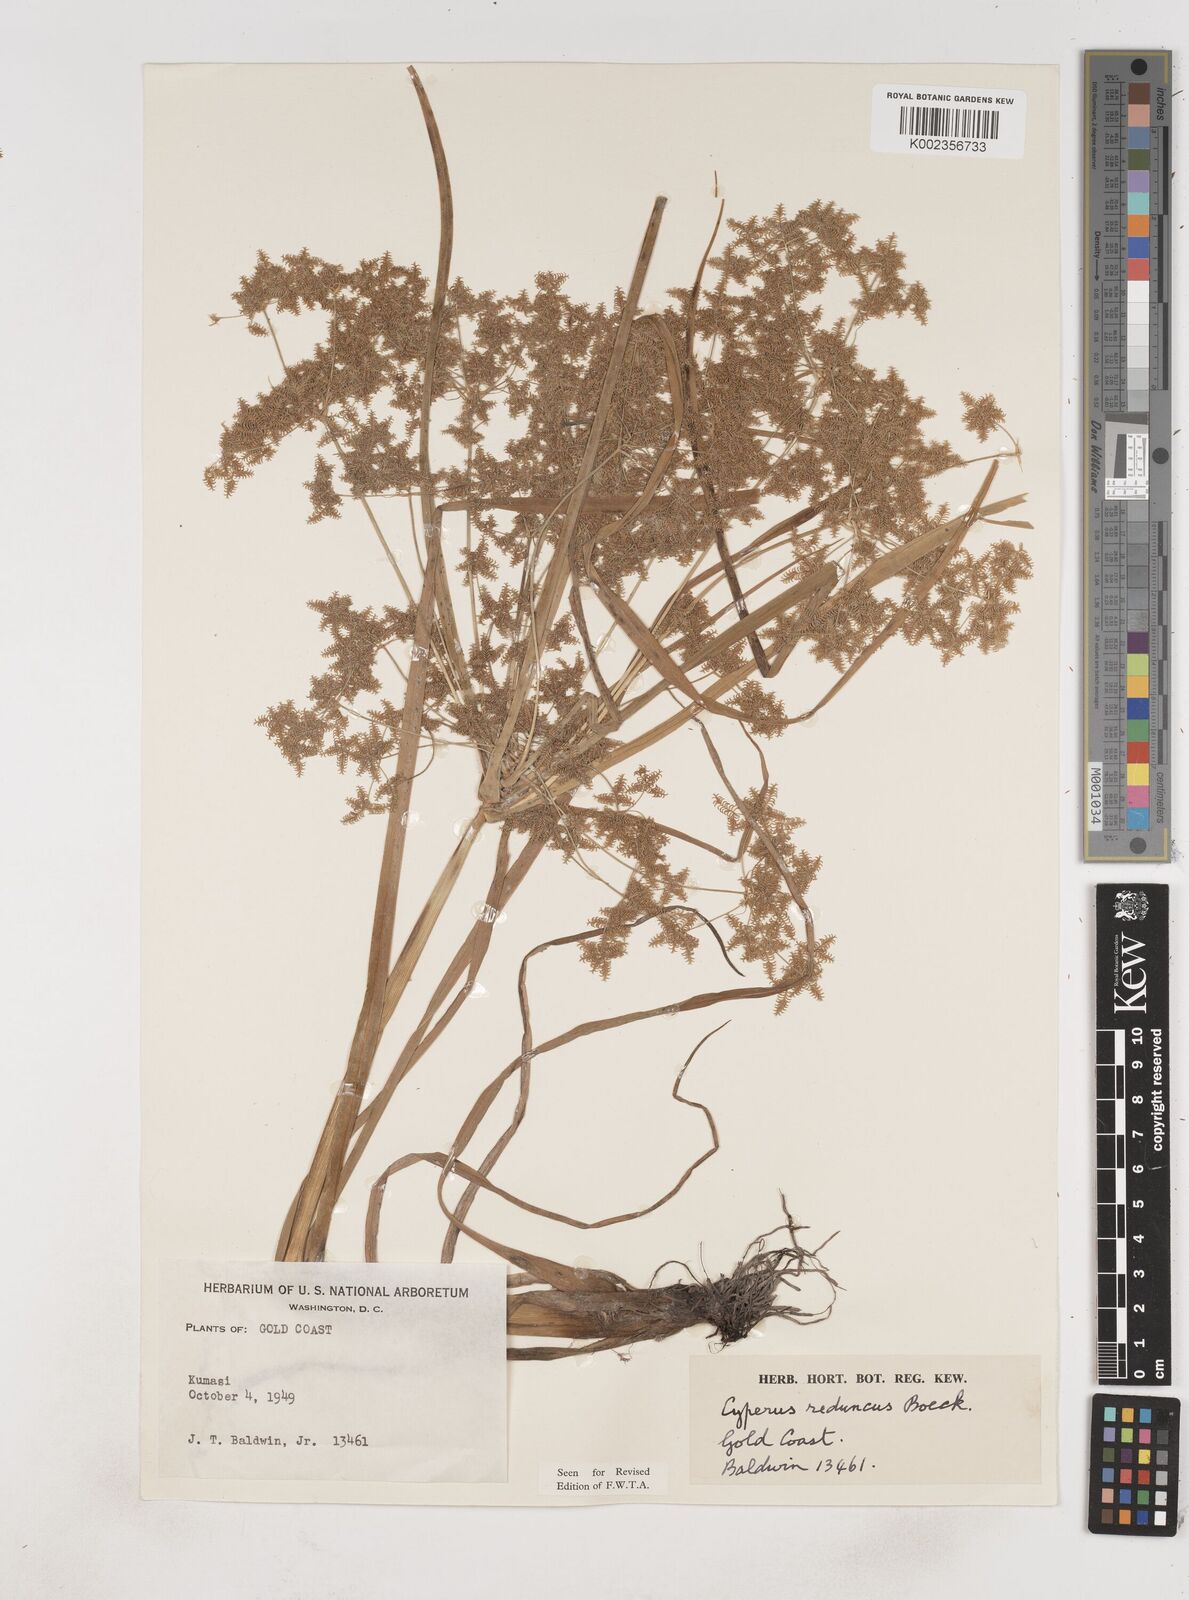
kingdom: Plantae
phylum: Tracheophyta
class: Liliopsida
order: Poales
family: Cyperaceae
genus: Cyperus
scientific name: Cyperus reduncus
